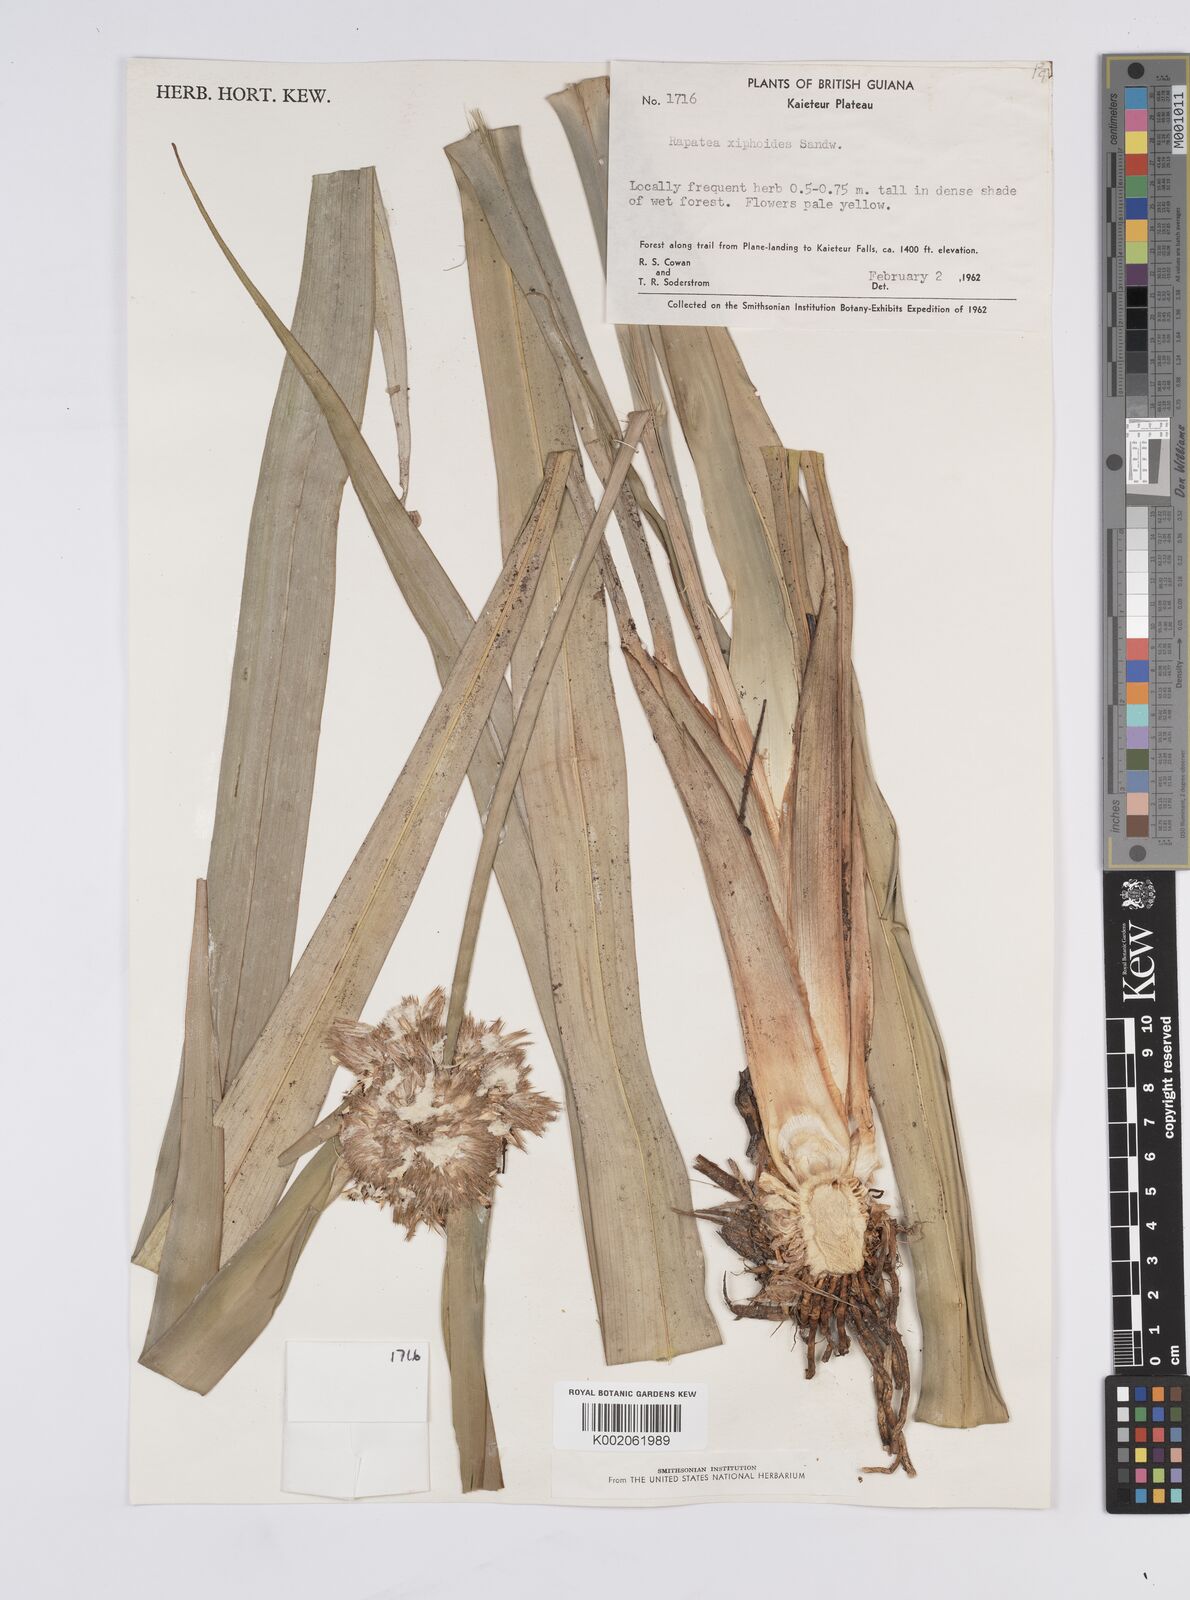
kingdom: Plantae
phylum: Tracheophyta
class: Liliopsida
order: Poales
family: Rapateaceae
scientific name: Rapateaceae
